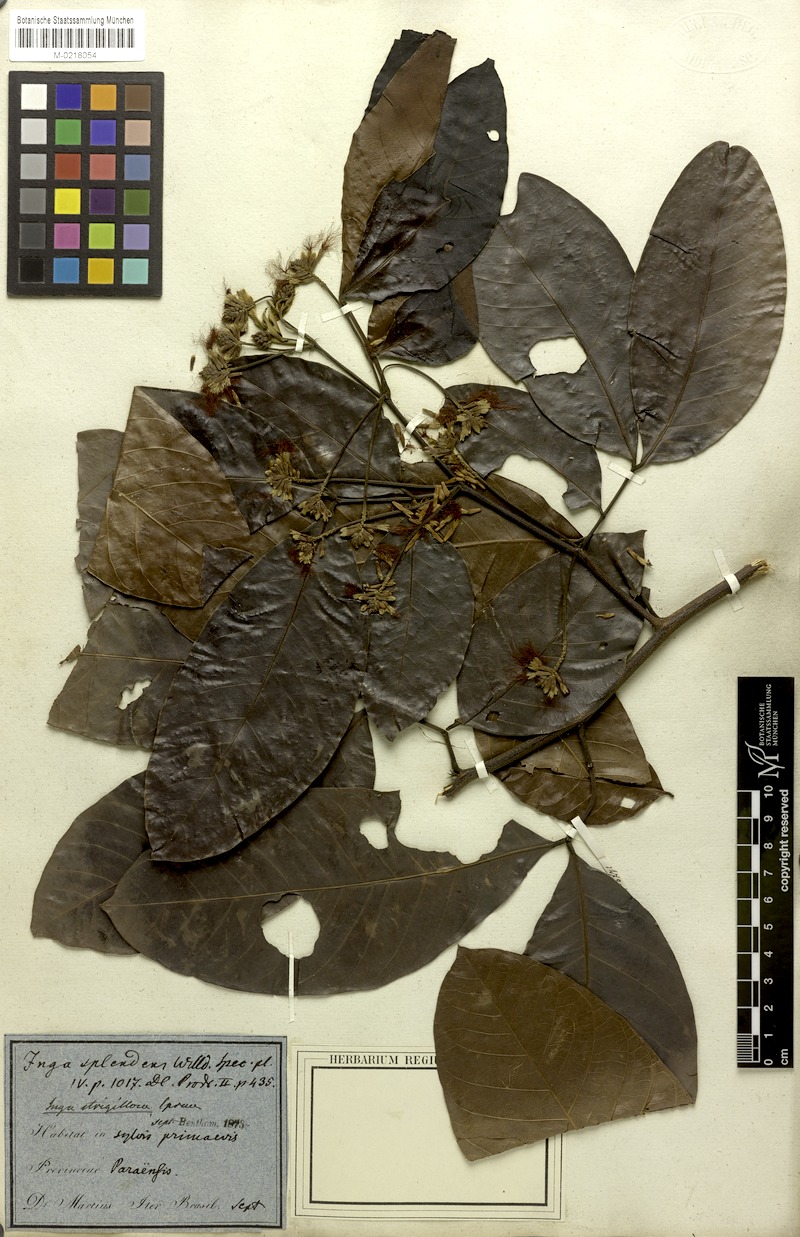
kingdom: Plantae
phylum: Tracheophyta
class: Magnoliopsida
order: Fabales
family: Fabaceae
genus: Inga
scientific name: Inga punctata
